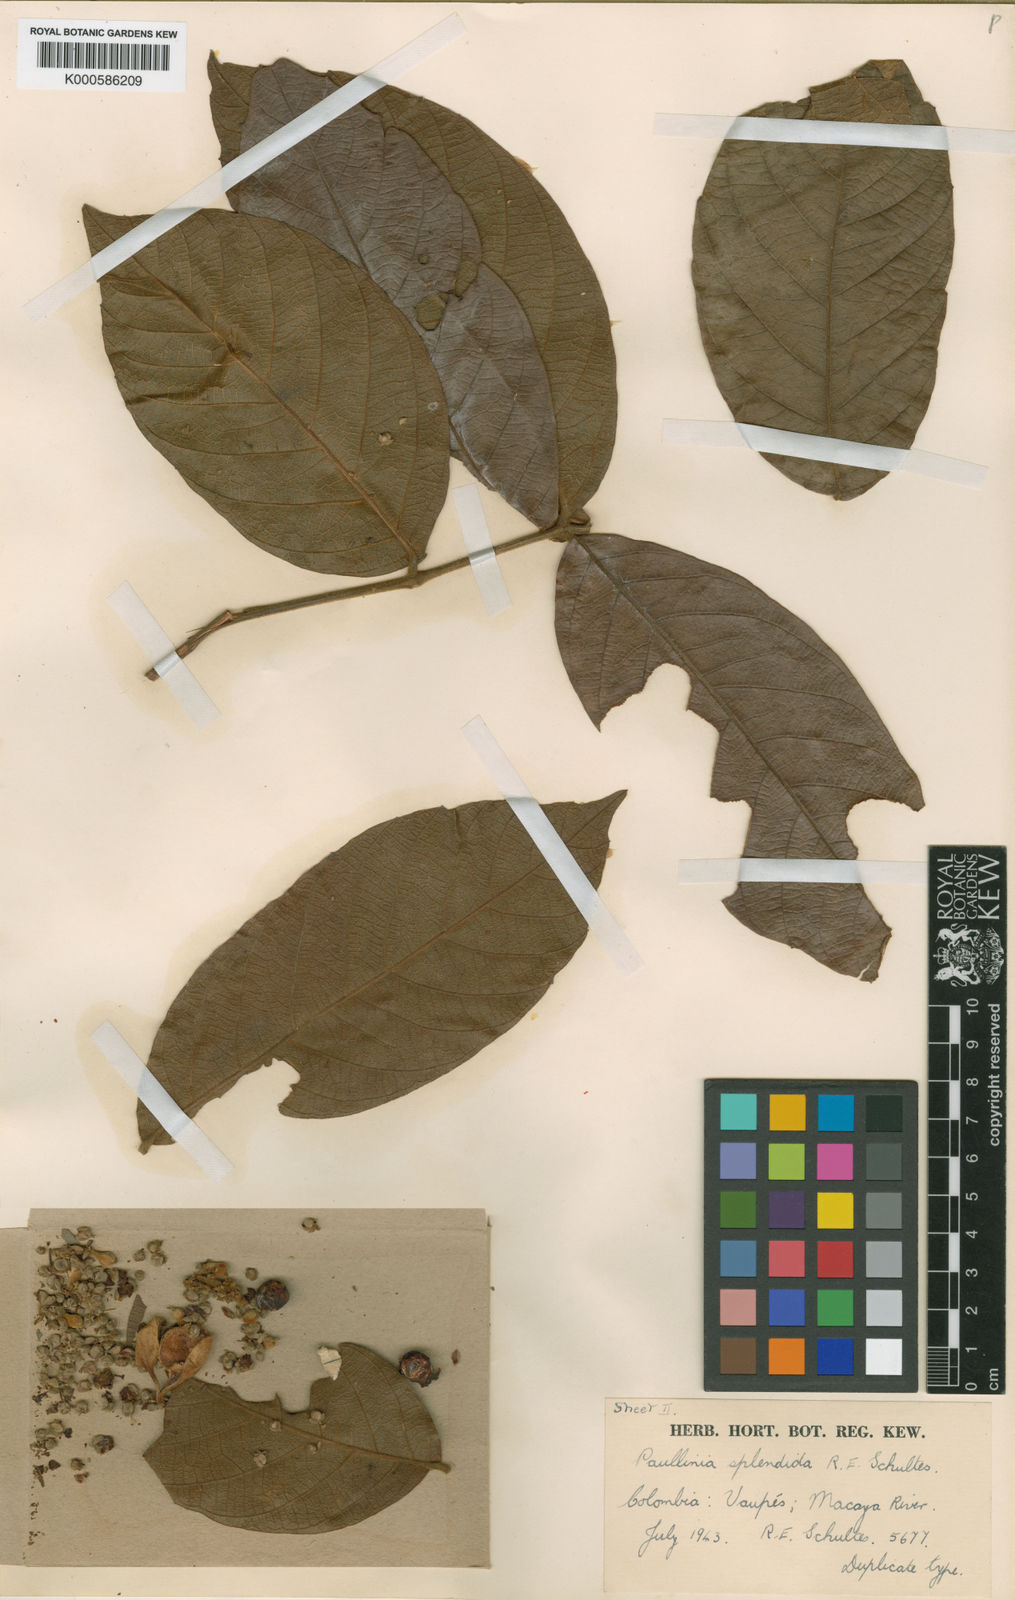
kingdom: Plantae
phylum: Tracheophyta
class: Magnoliopsida
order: Sapindales
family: Sapindaceae
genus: Paullinia
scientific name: Paullinia splendida
